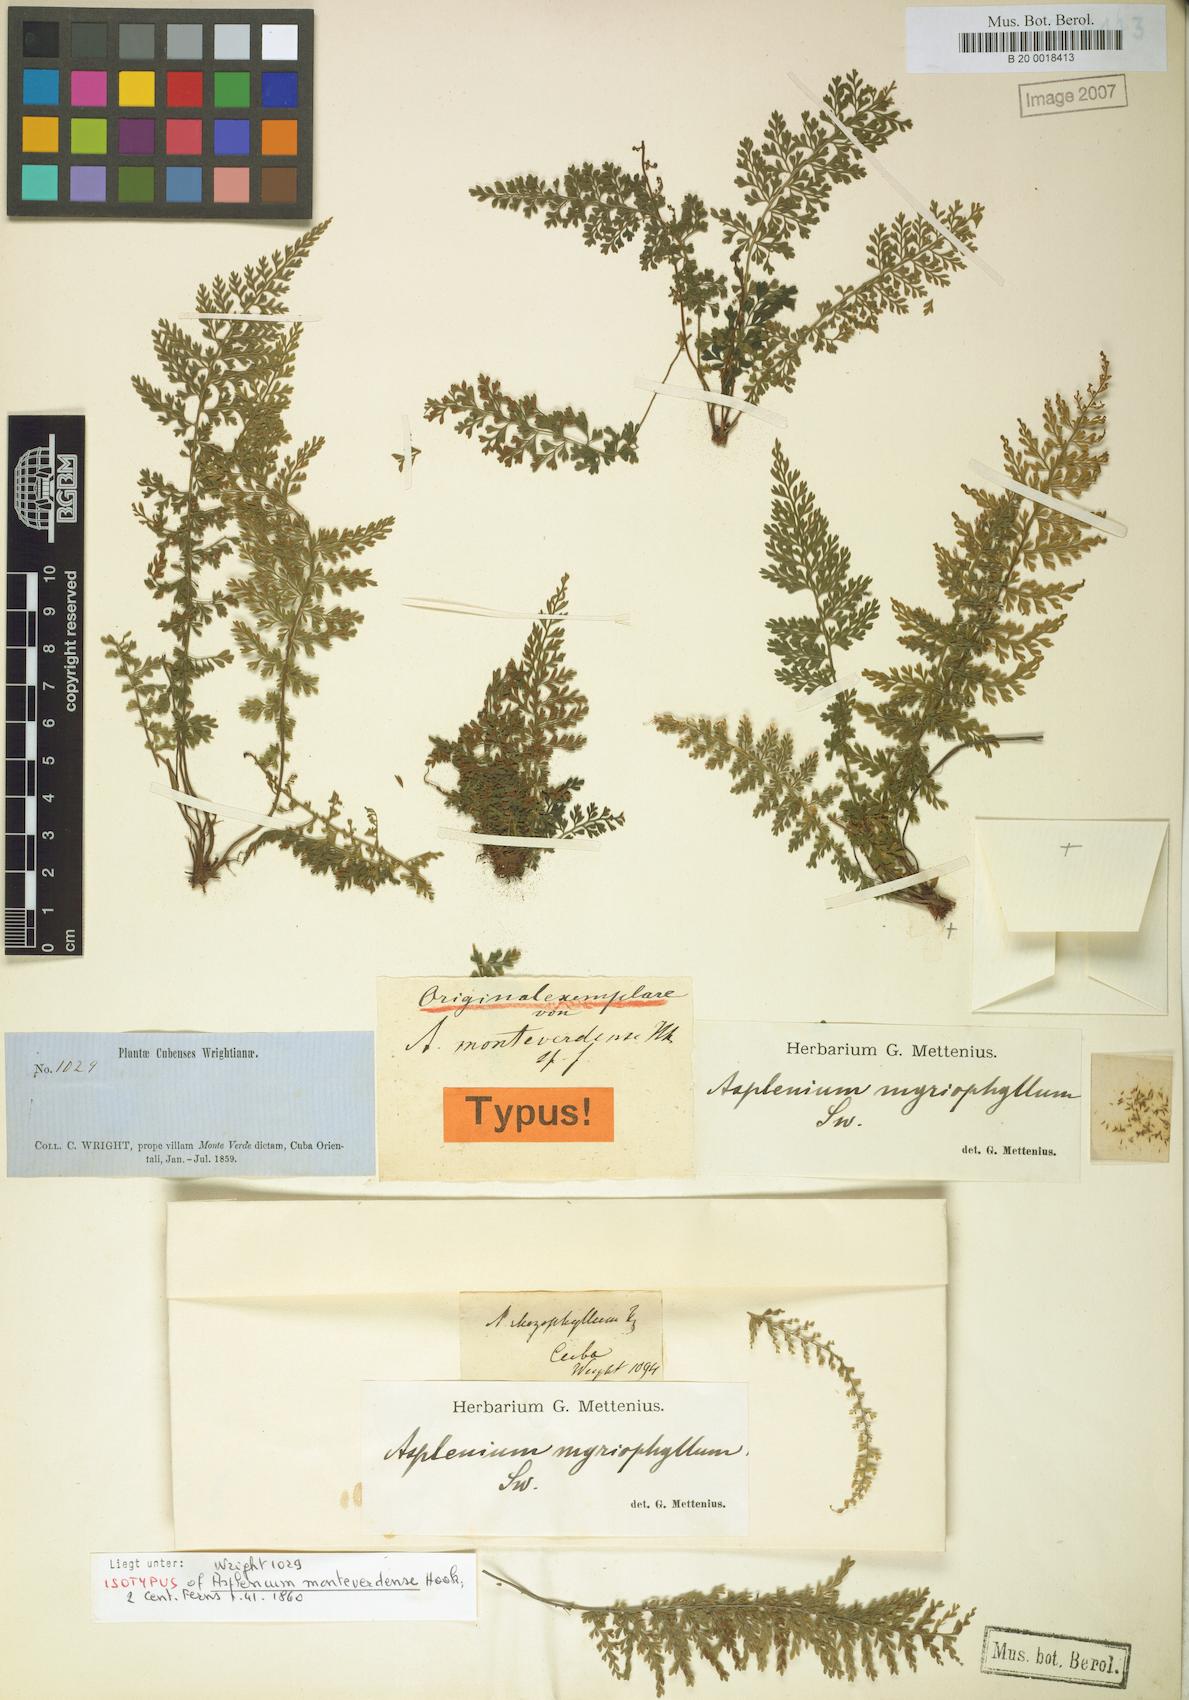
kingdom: Plantae
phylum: Tracheophyta
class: Polypodiopsida
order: Polypodiales
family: Aspleniaceae
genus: Asplenium
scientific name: Asplenium myriophyllum
